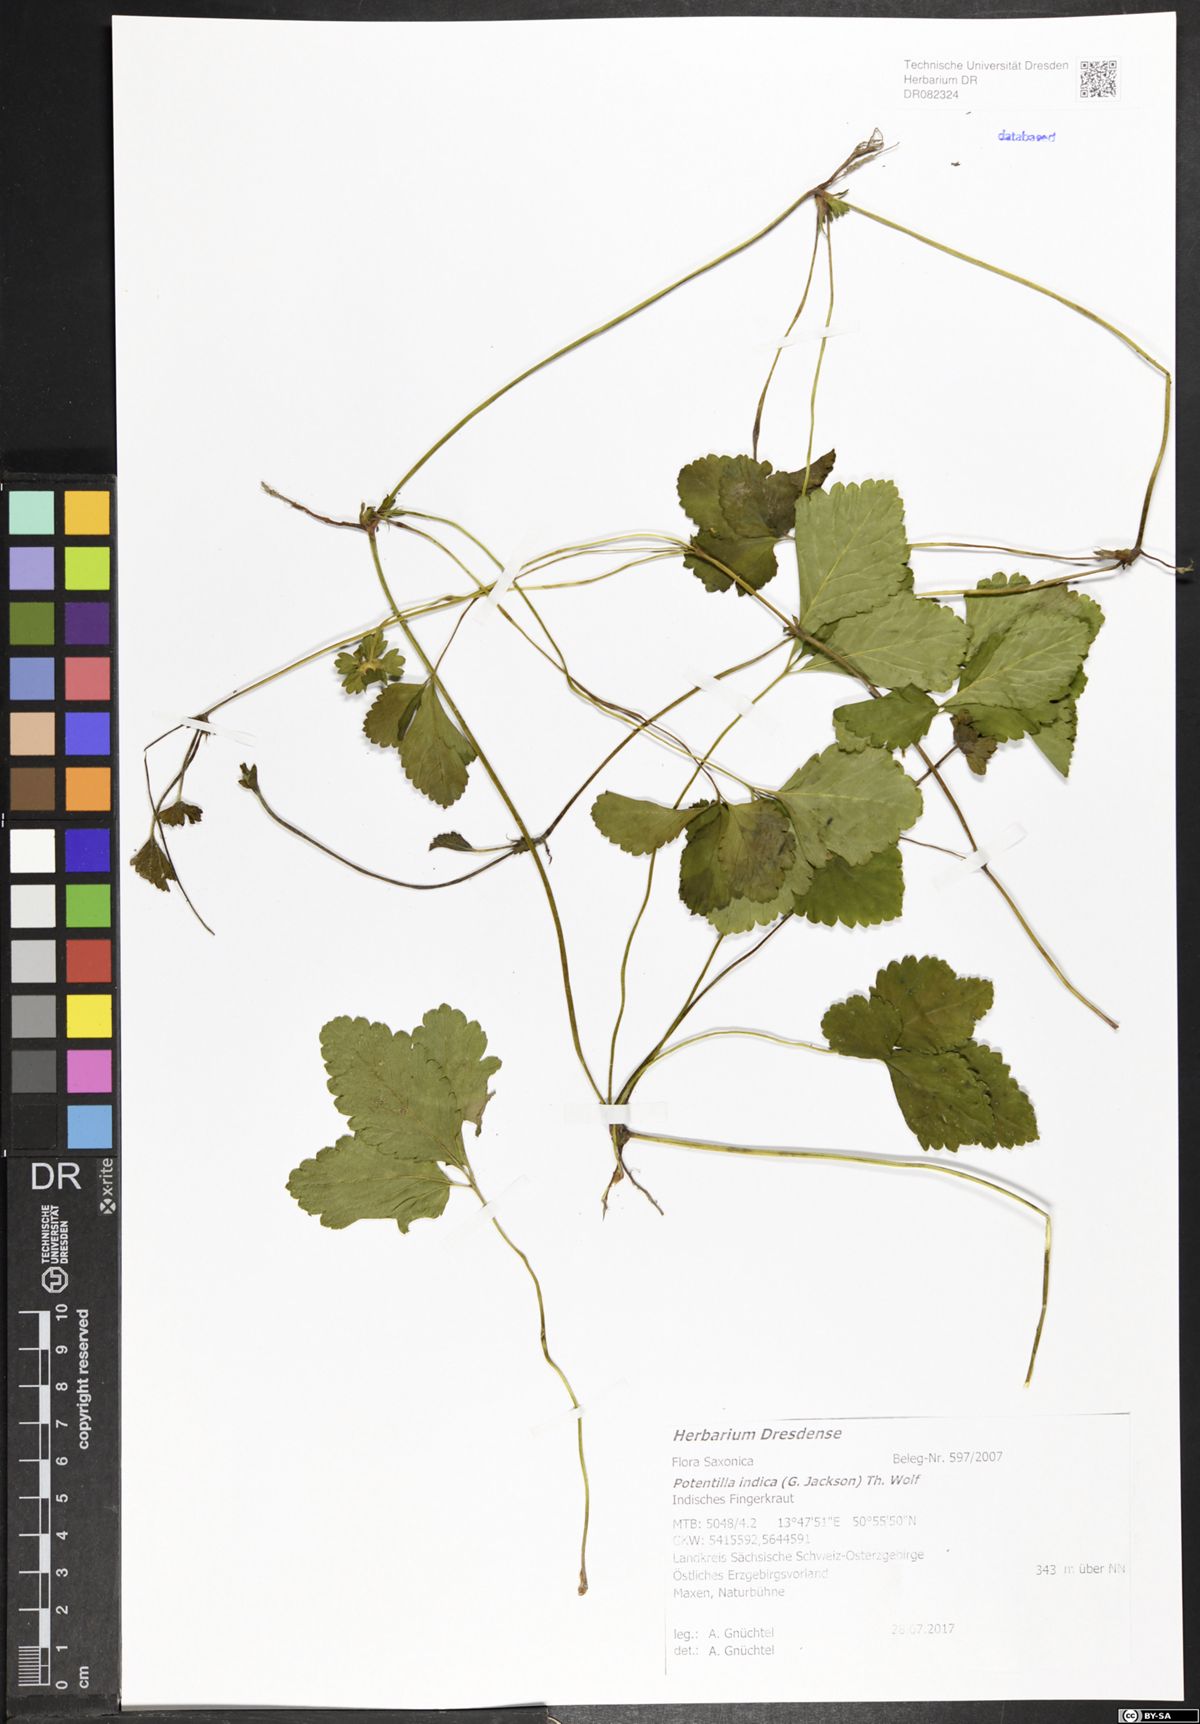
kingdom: Plantae
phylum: Tracheophyta
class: Magnoliopsida
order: Rosales
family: Rosaceae
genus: Potentilla
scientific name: Potentilla indica
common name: Yellow-flowered strawberry
